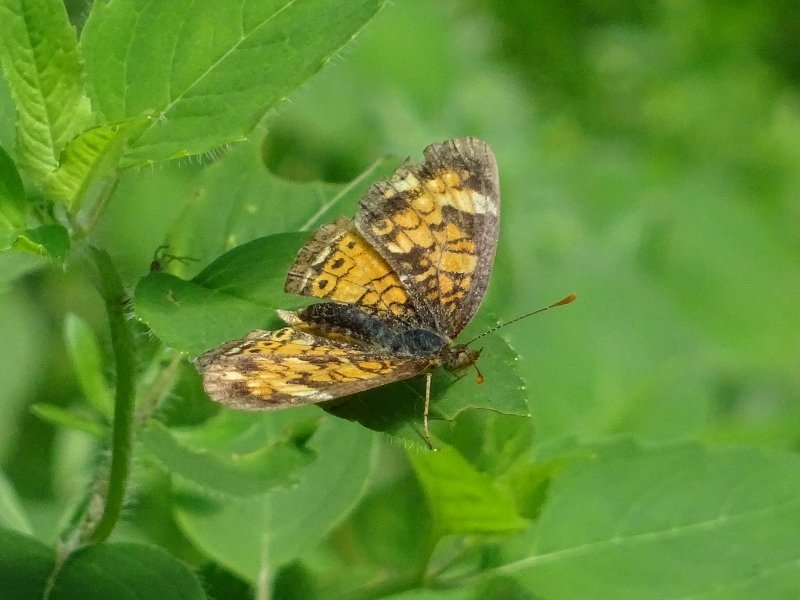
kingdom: Animalia
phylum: Arthropoda
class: Insecta
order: Lepidoptera
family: Nymphalidae
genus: Phyciodes
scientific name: Phyciodes tharos
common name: Northern Crescent
